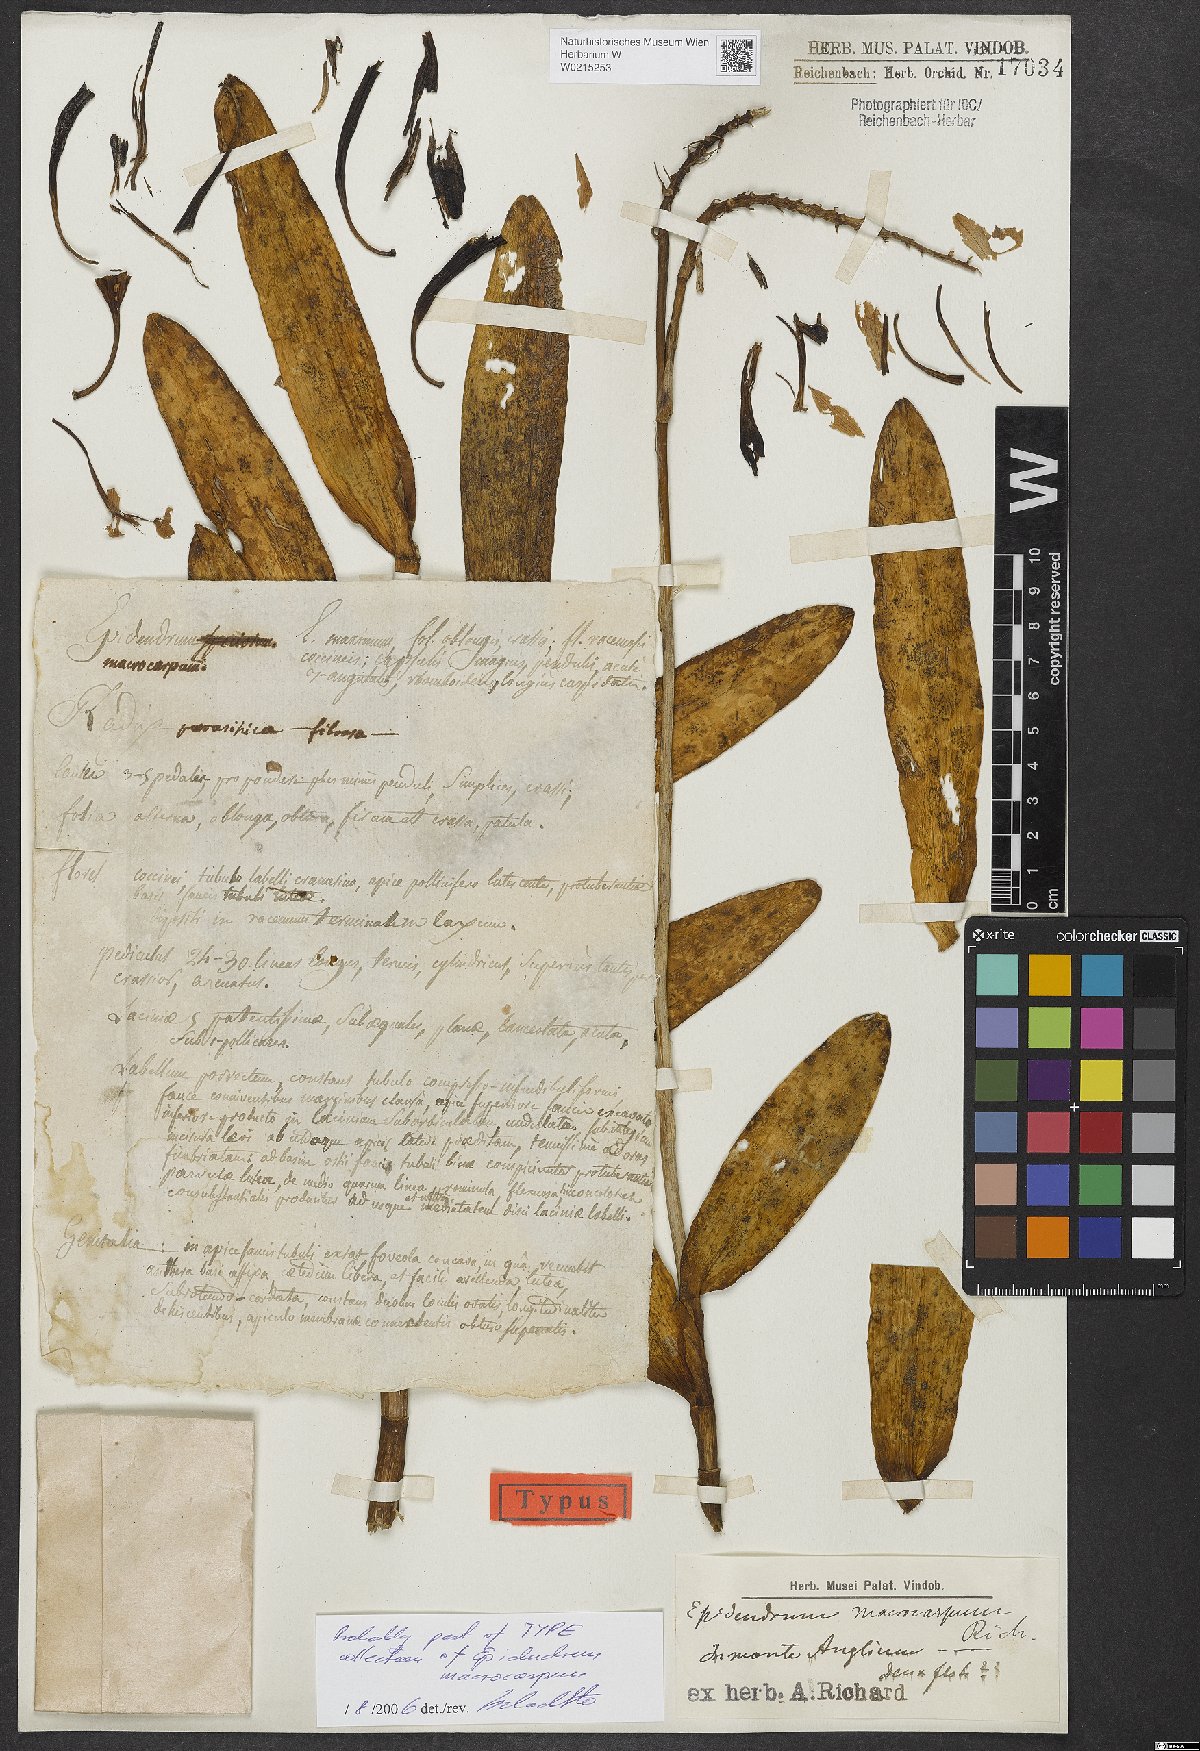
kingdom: Plantae
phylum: Tracheophyta
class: Liliopsida
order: Asparagales
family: Orchidaceae
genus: Epidendrum
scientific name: Epidendrum
